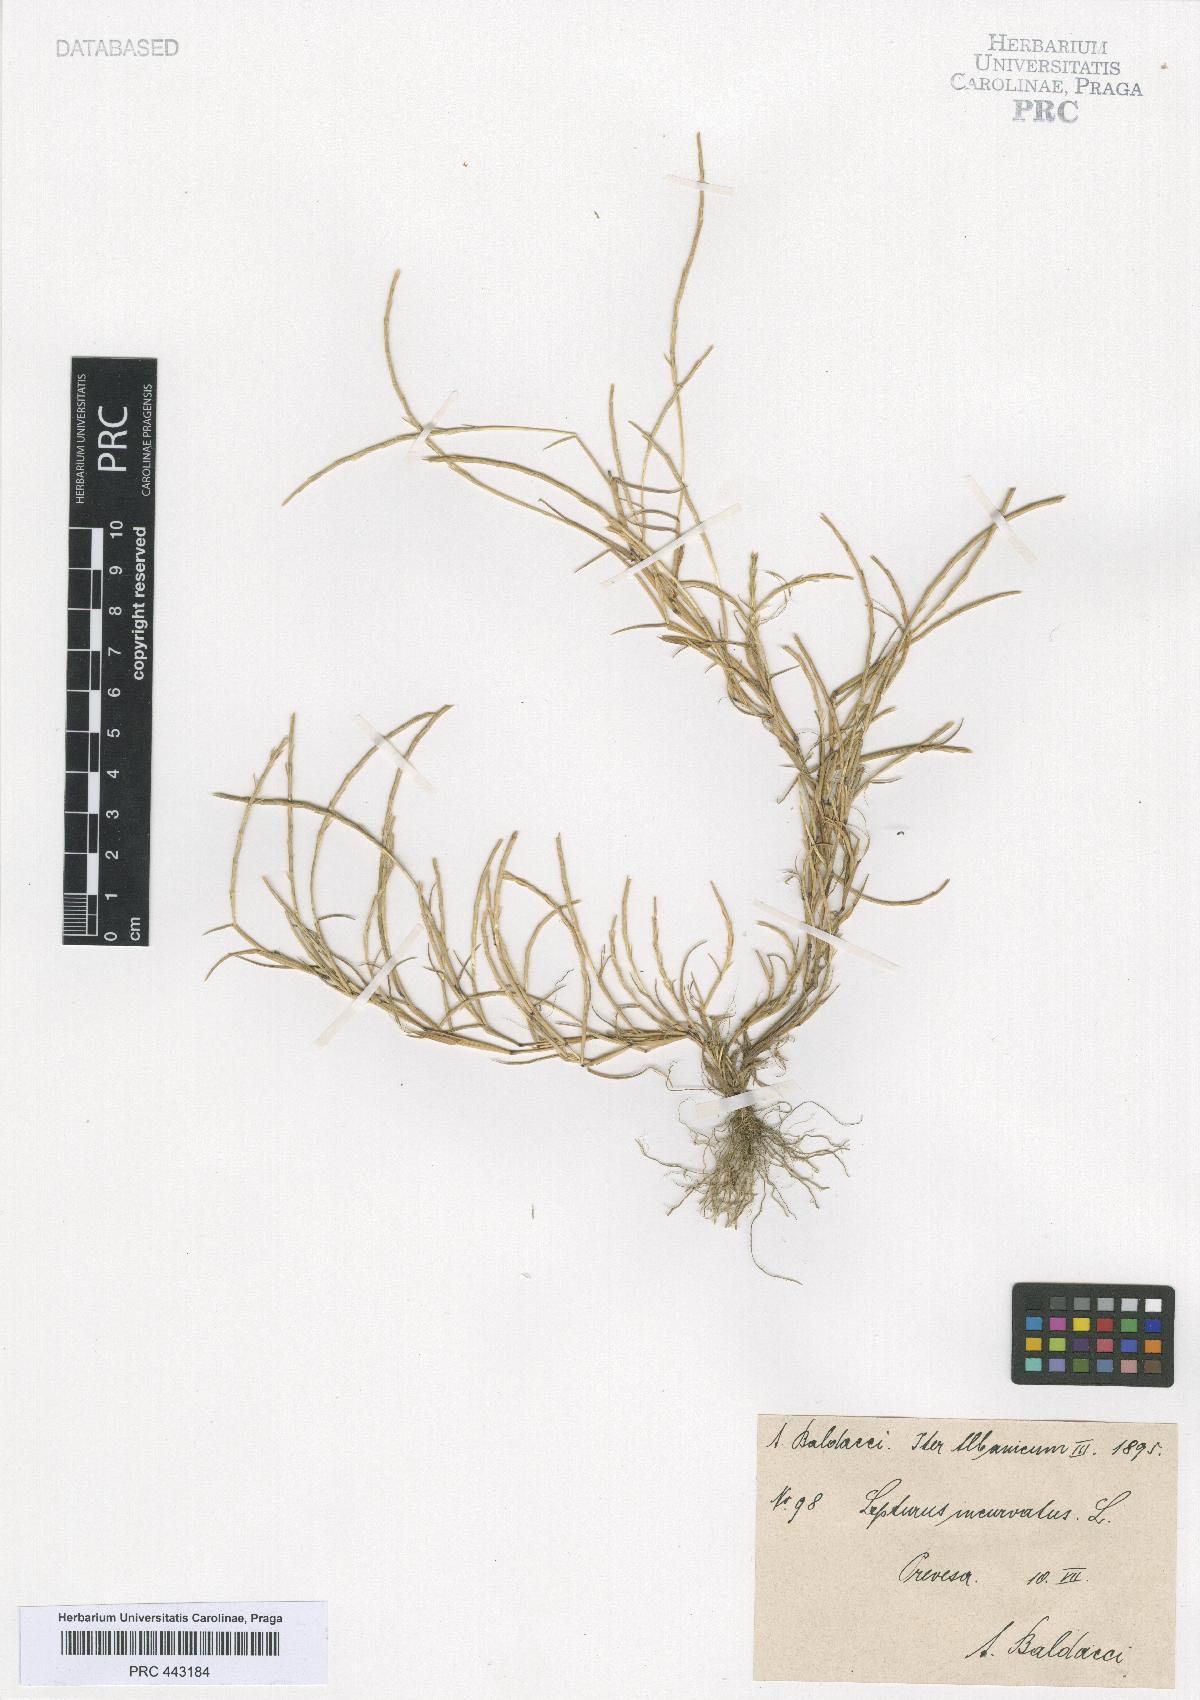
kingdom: Plantae
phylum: Tracheophyta
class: Liliopsida
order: Poales
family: Poaceae
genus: Parapholis
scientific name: Parapholis incurva
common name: Curved sicklegrass
